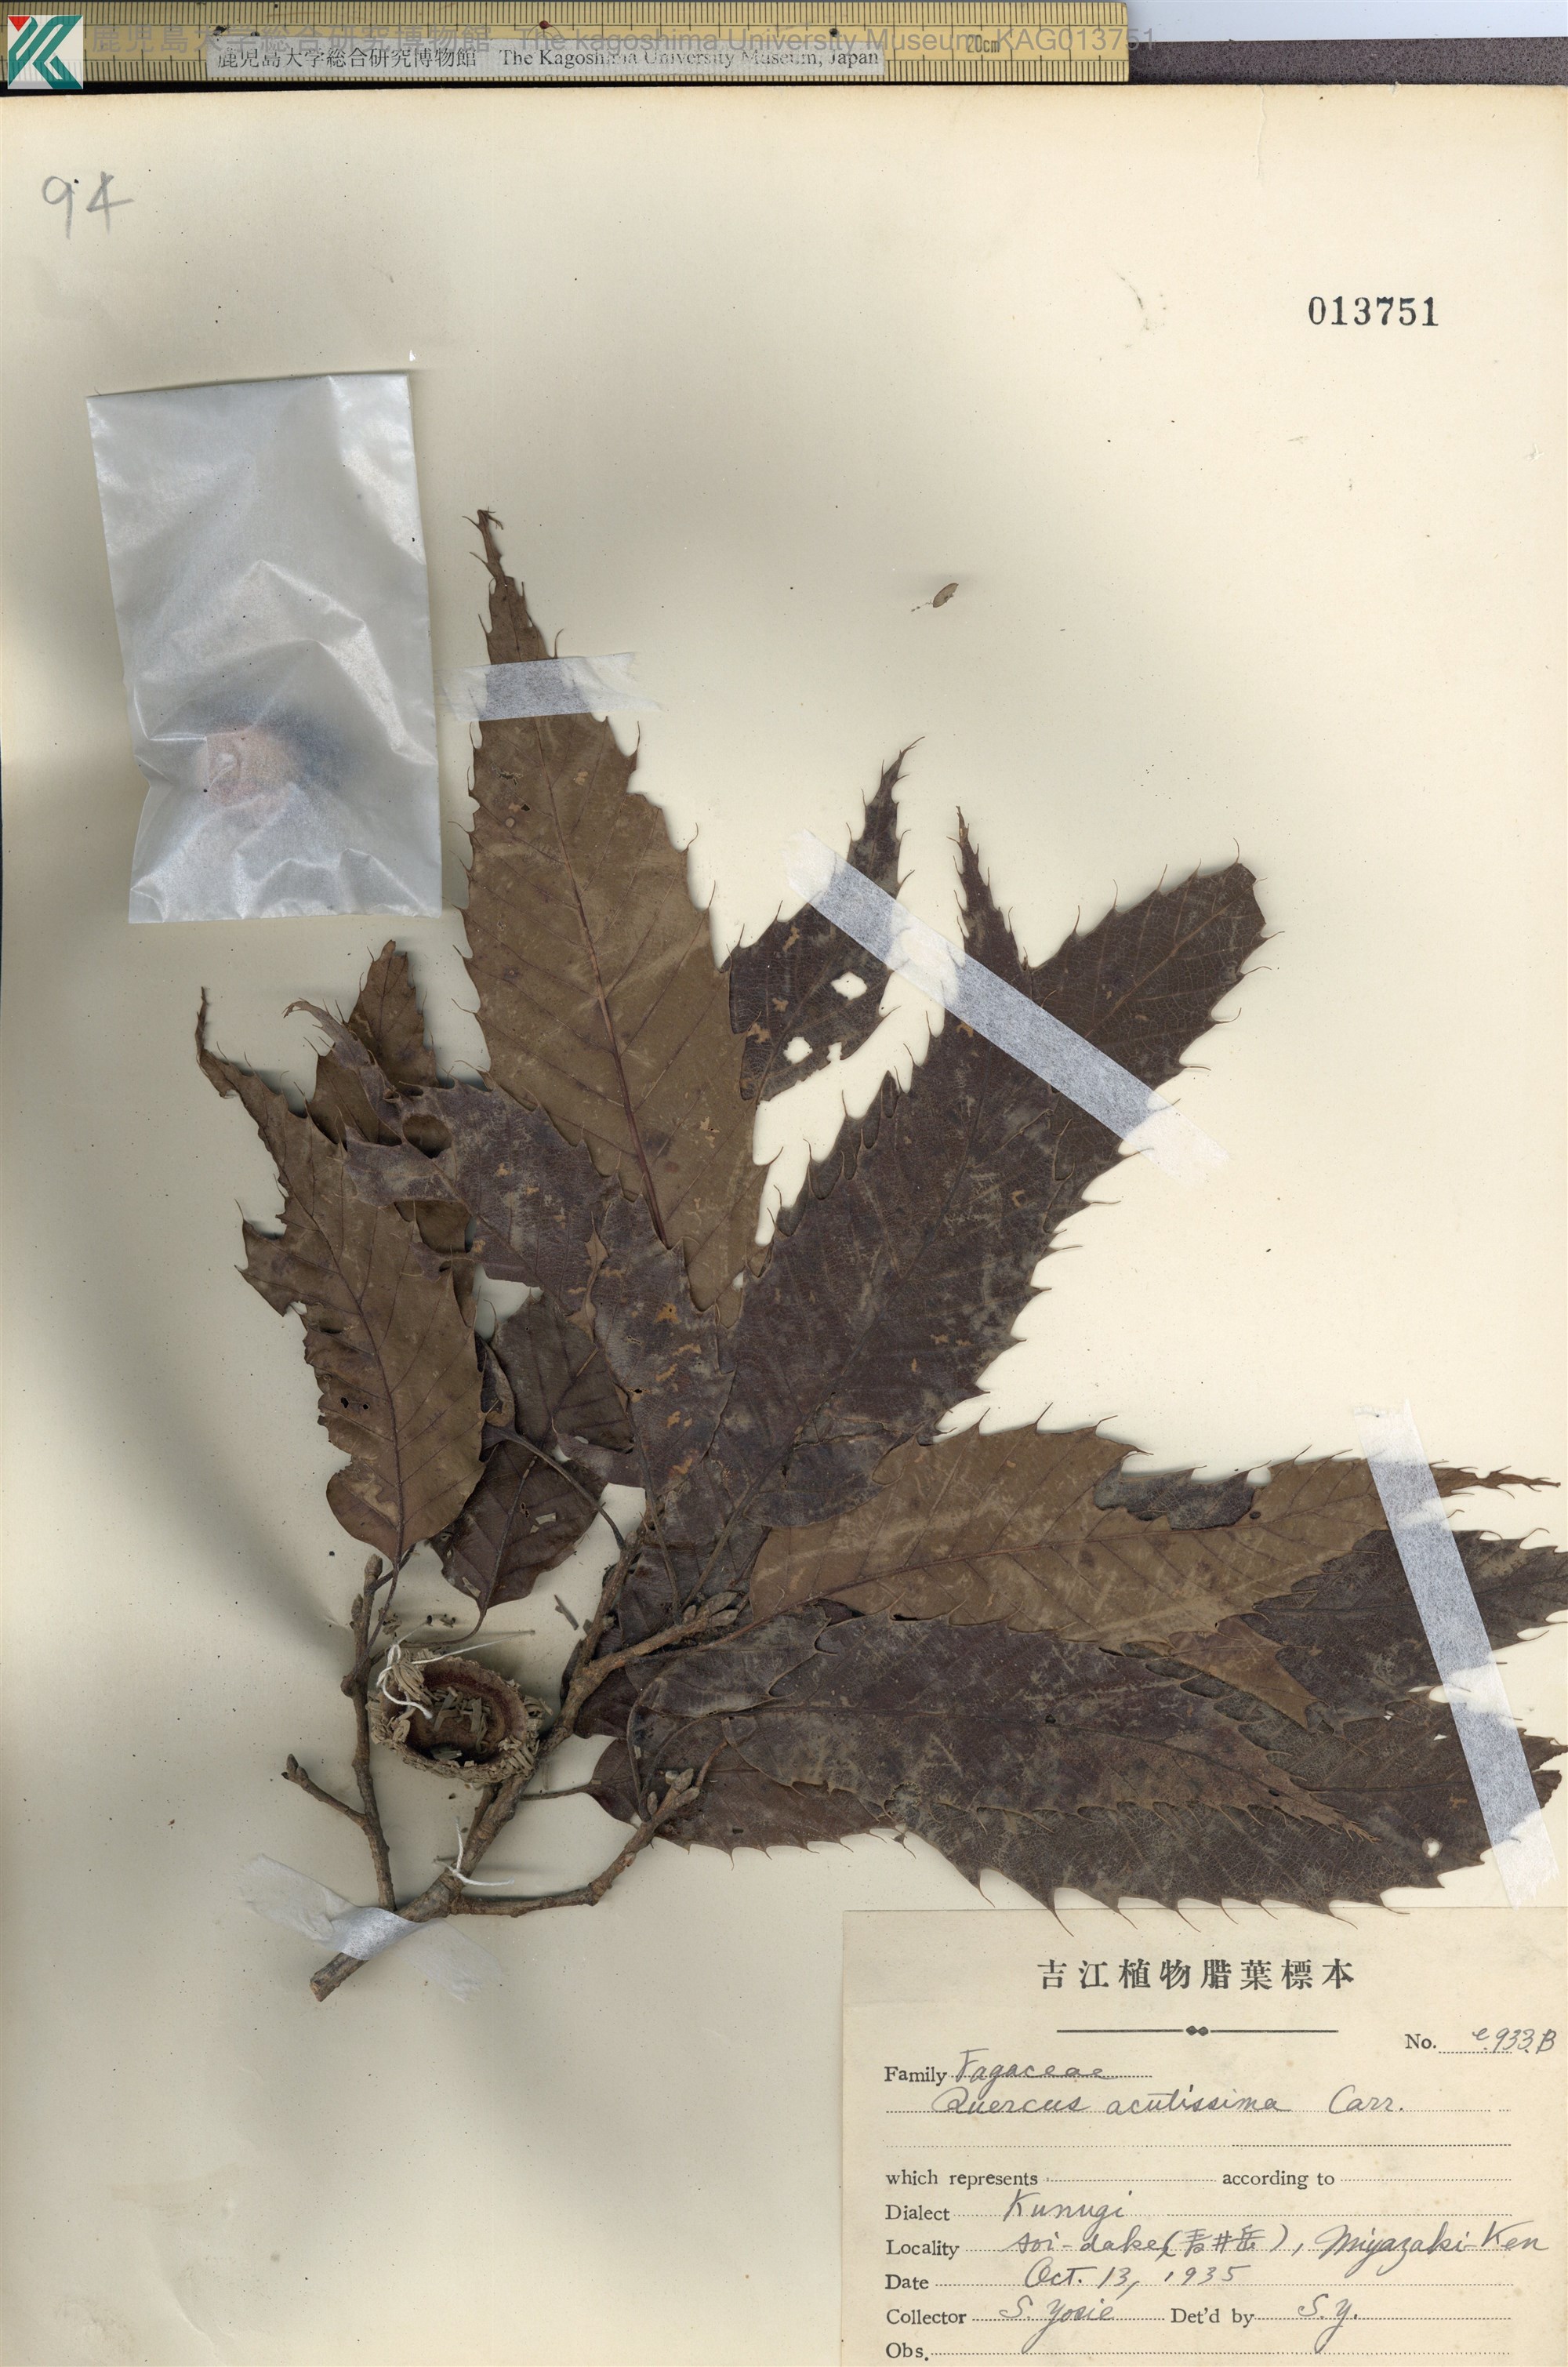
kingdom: Plantae
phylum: Tracheophyta
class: Magnoliopsida
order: Fagales
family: Fagaceae
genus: Quercus
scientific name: Quercus acutissima
